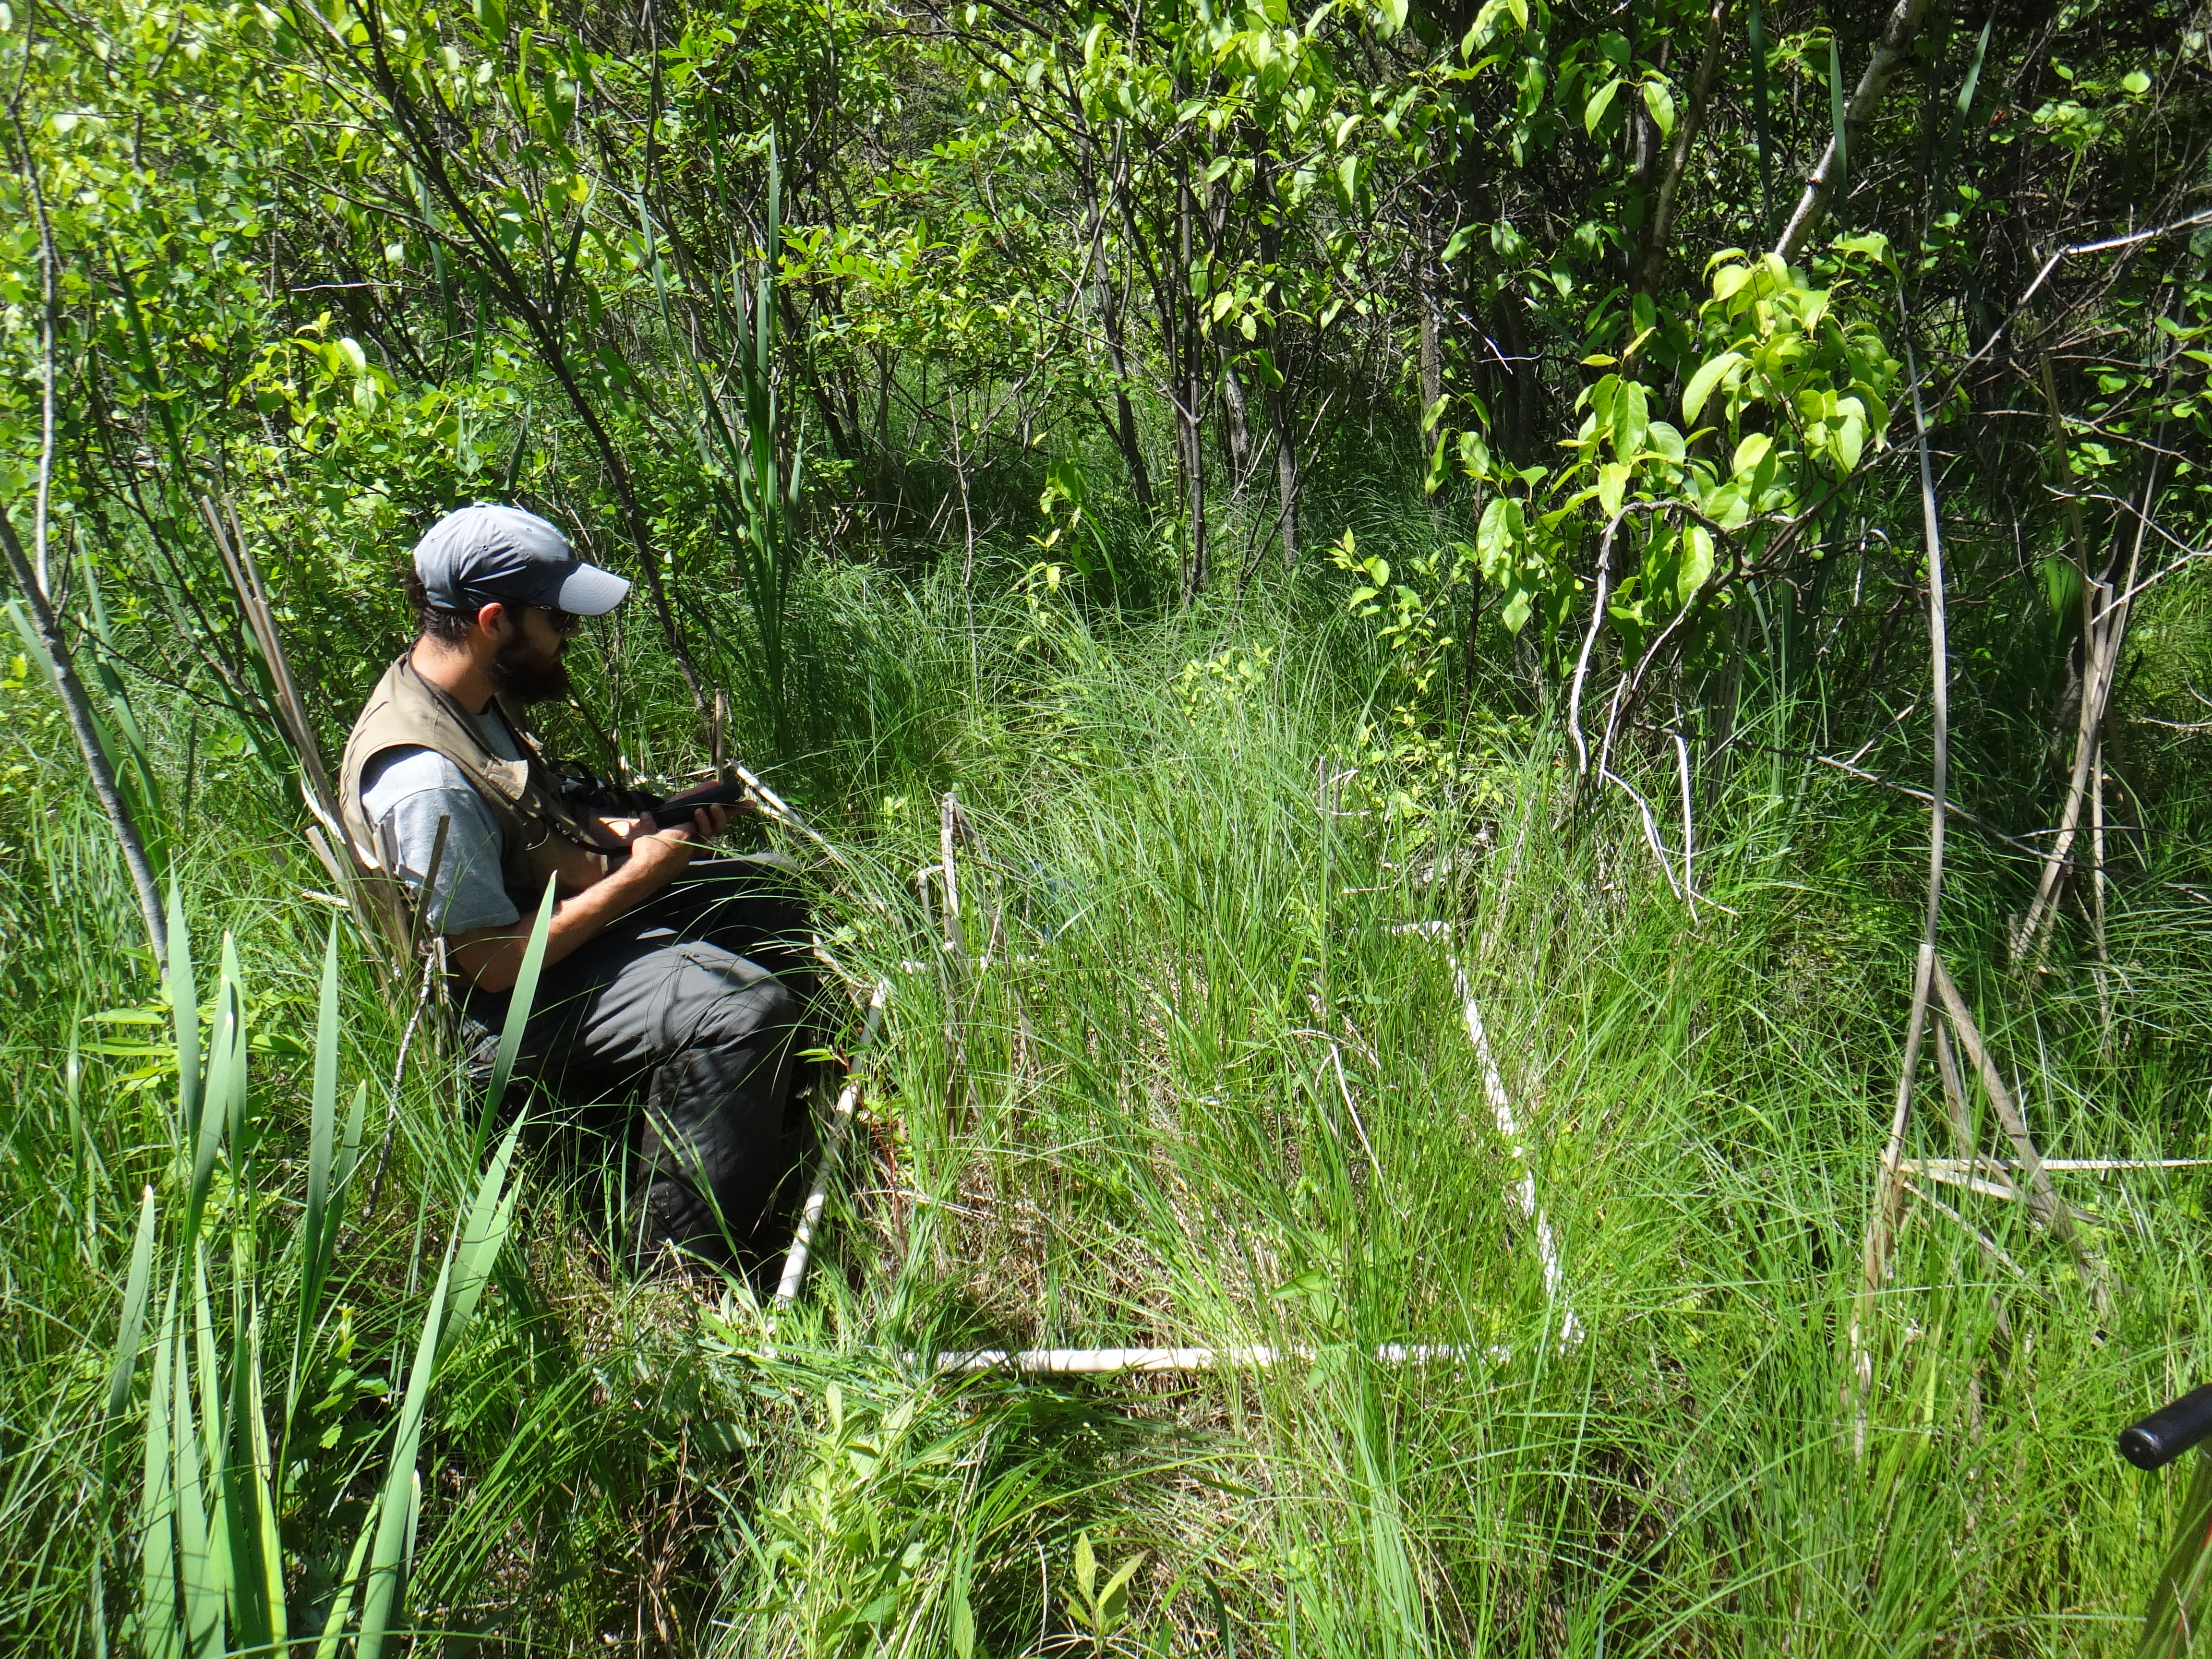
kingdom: Plantae
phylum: Tracheophyta
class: Magnoliopsida
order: Rosales
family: Rosaceae
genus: Dasiphora
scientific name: Dasiphora fruticosa
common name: Shrubby cinquefoil
